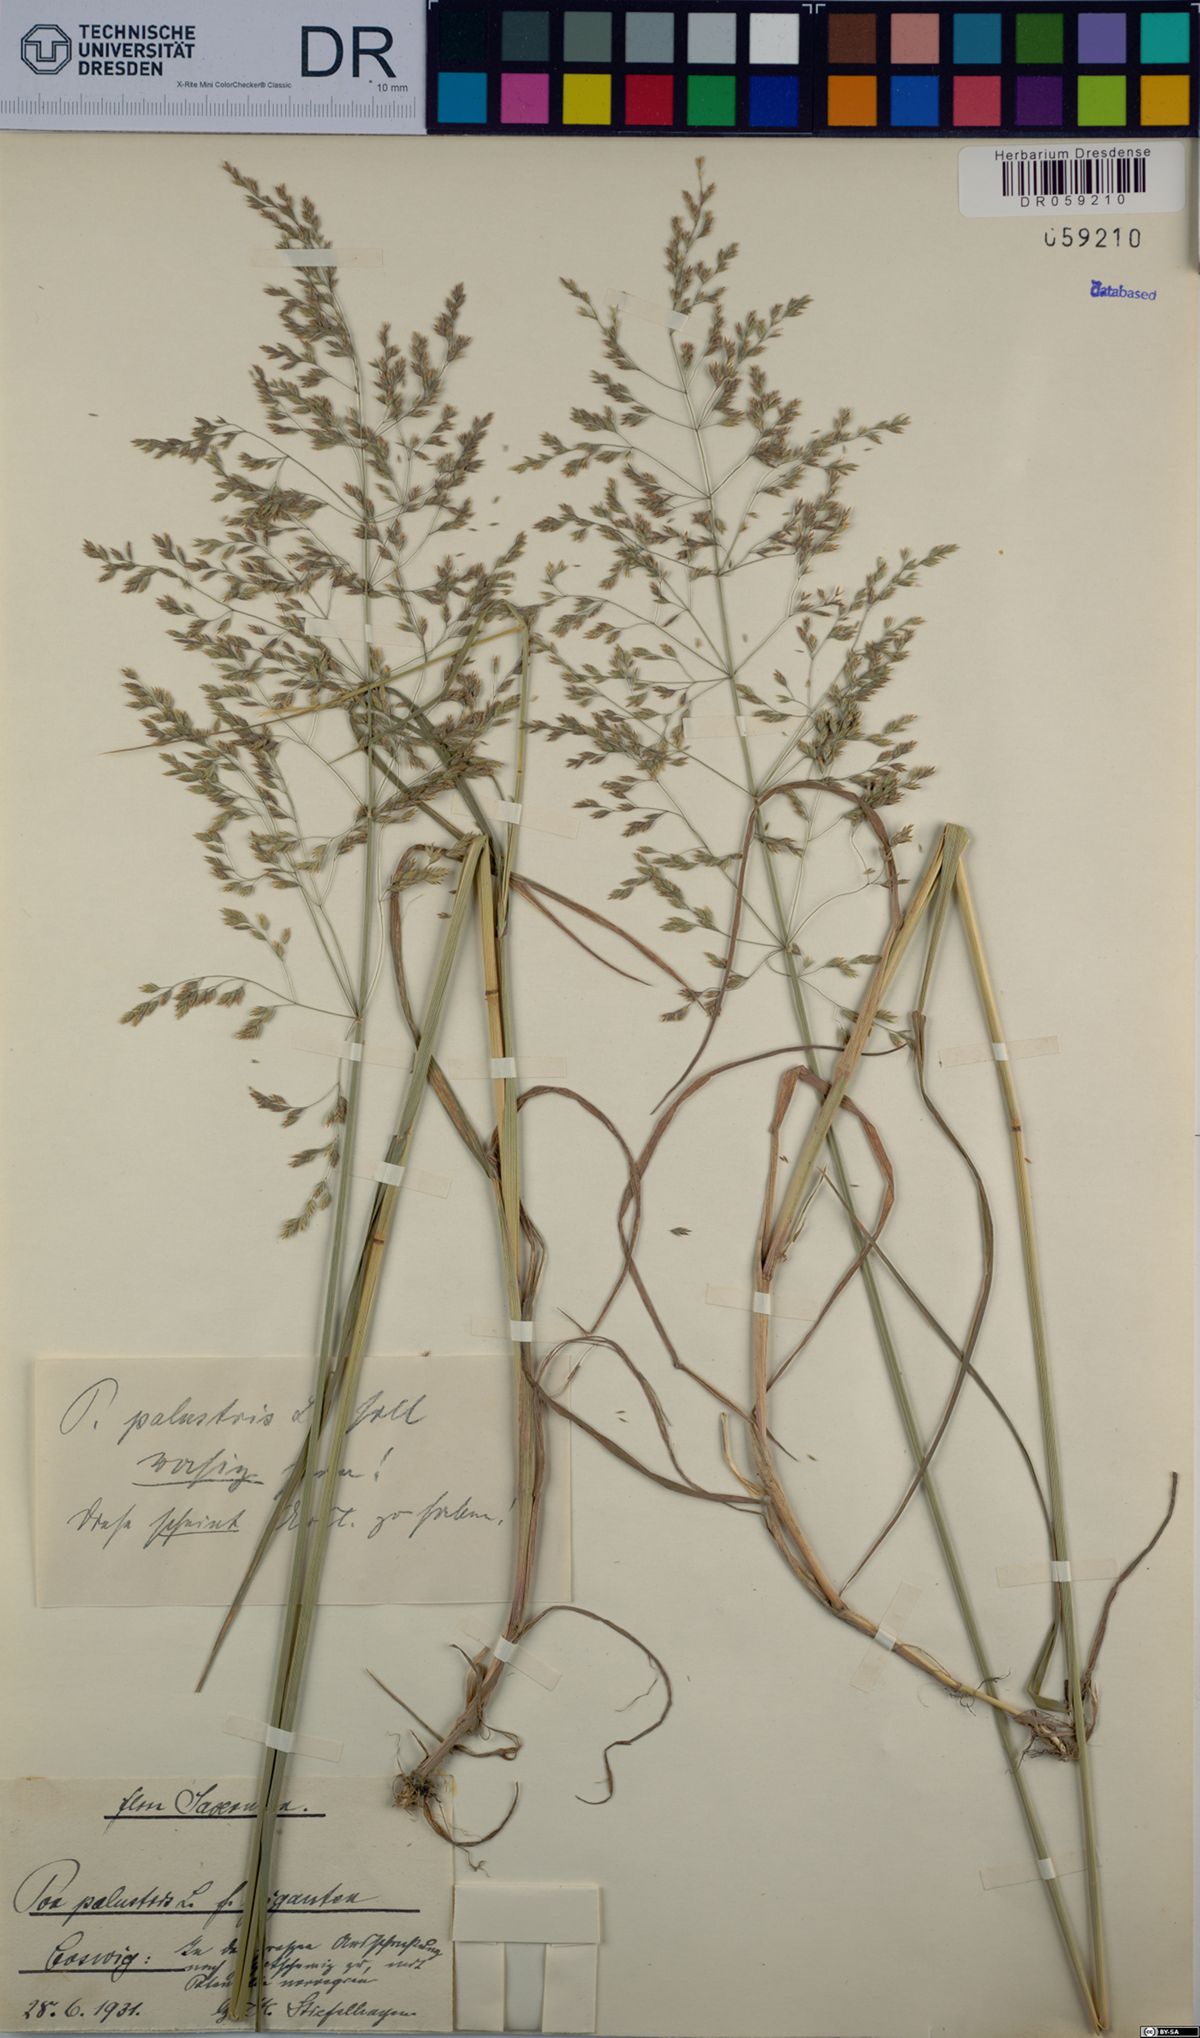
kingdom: Plantae
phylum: Tracheophyta
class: Liliopsida
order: Poales
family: Poaceae
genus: Poa
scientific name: Poa palustris
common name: Swamp meadow-grass
